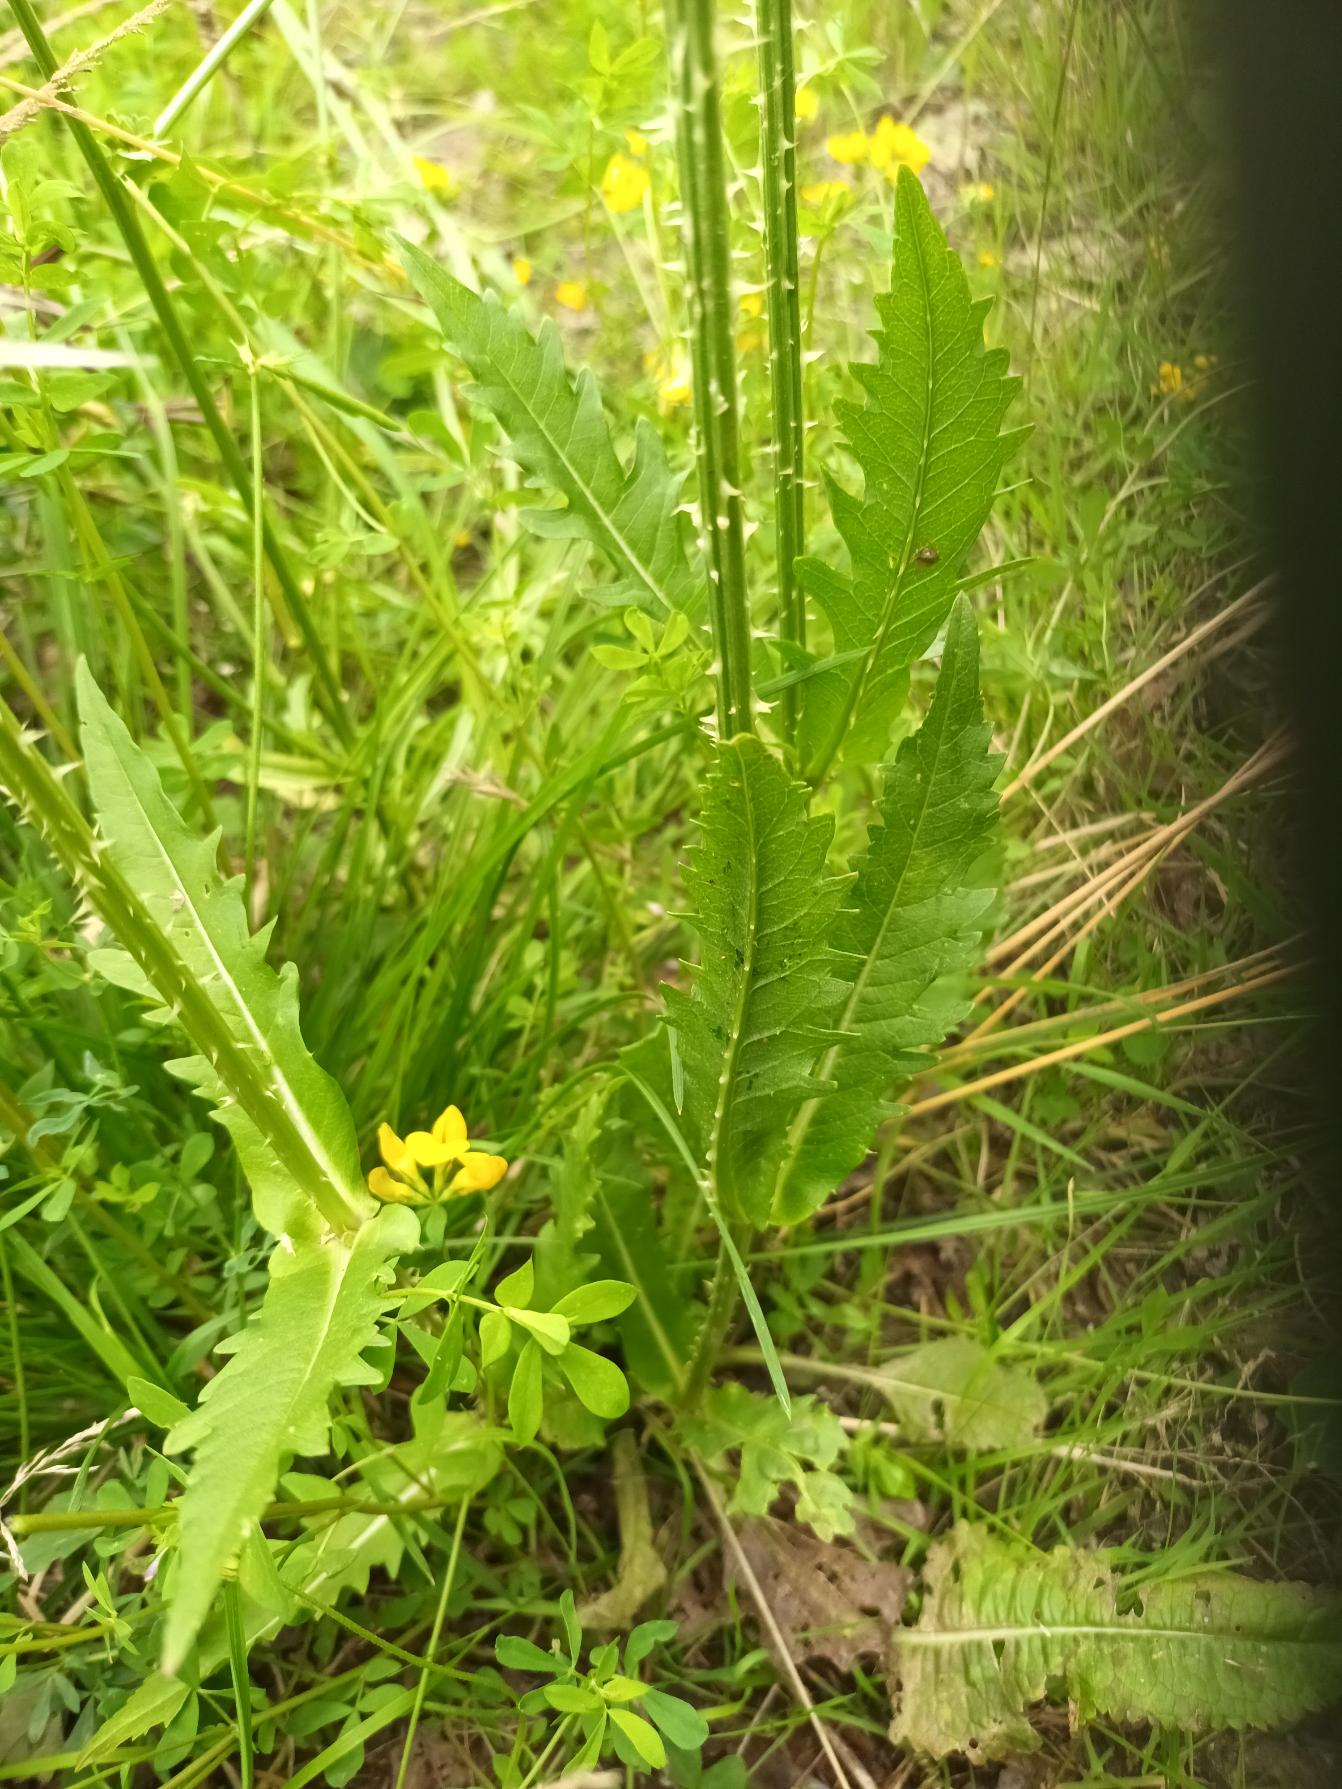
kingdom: Plantae
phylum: Tracheophyta
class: Magnoliopsida
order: Dipsacales
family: Caprifoliaceae
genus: Dipsacus
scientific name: Dipsacus laciniatus
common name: Fliget kartebolle
